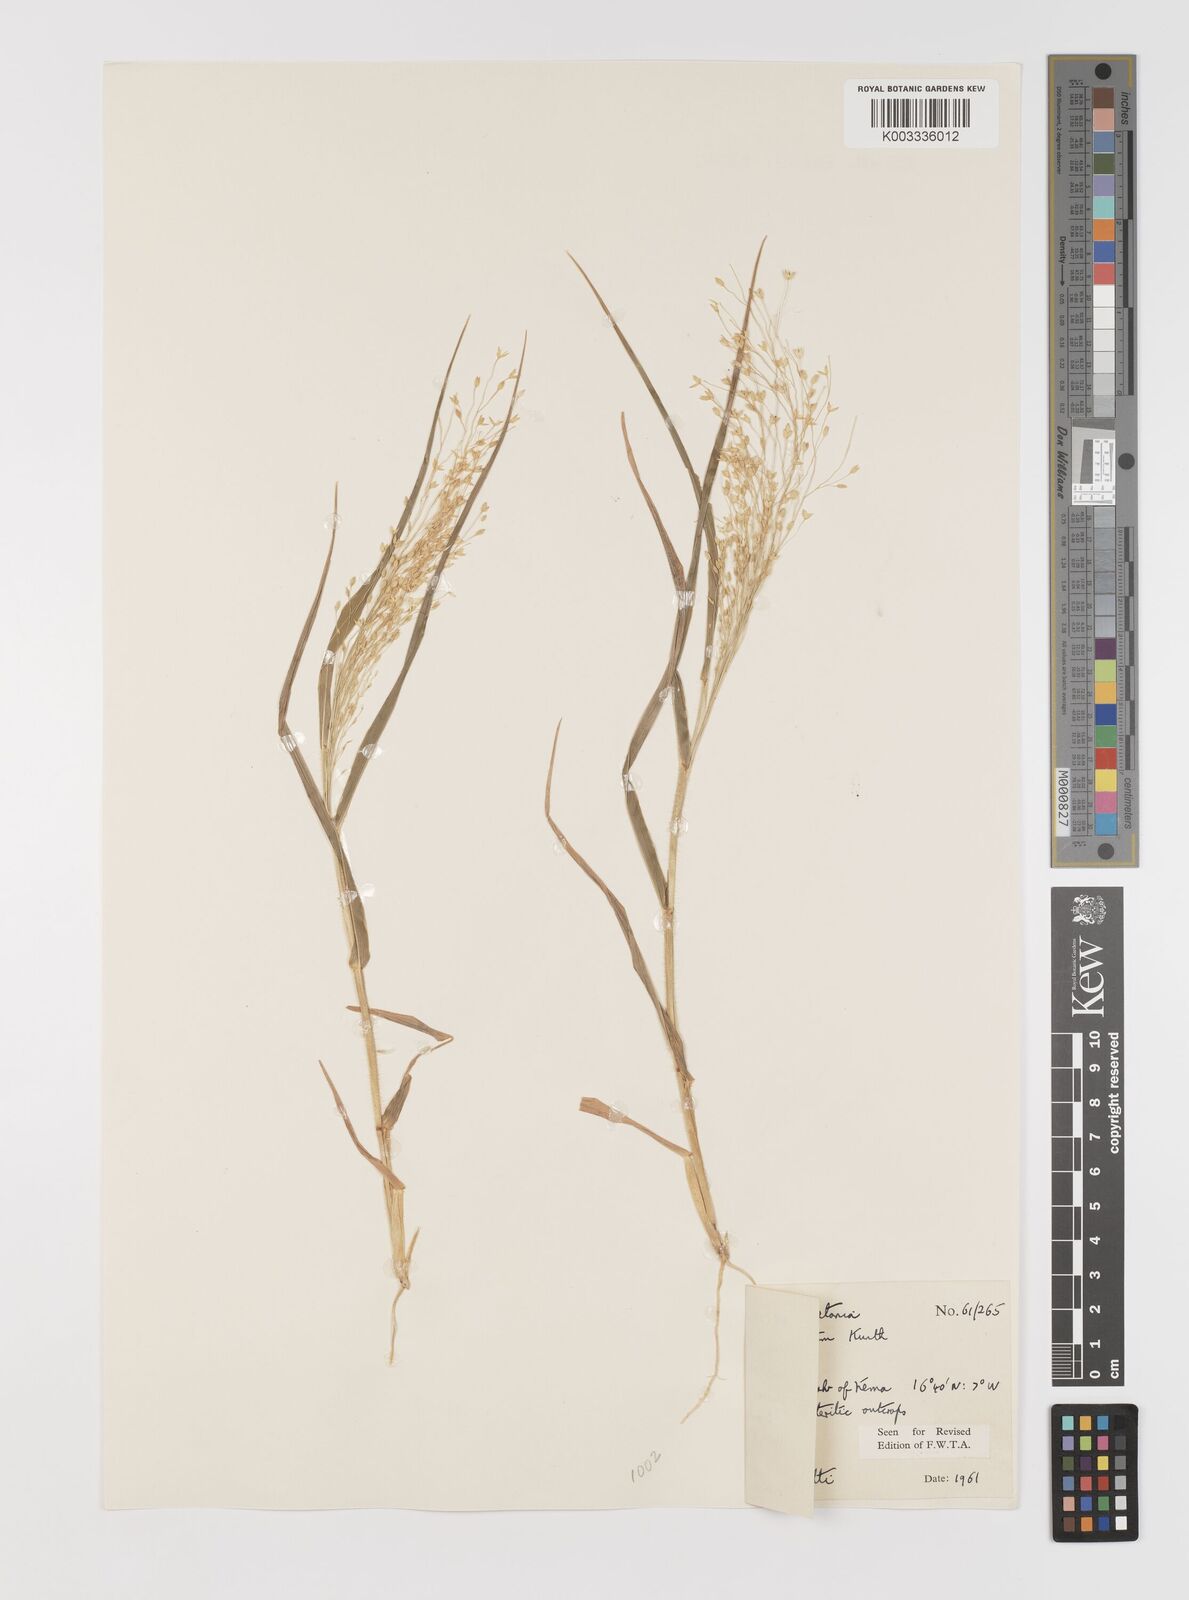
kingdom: Plantae
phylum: Tracheophyta
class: Liliopsida
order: Poales
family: Poaceae
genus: Panicum
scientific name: Panicum laetum
